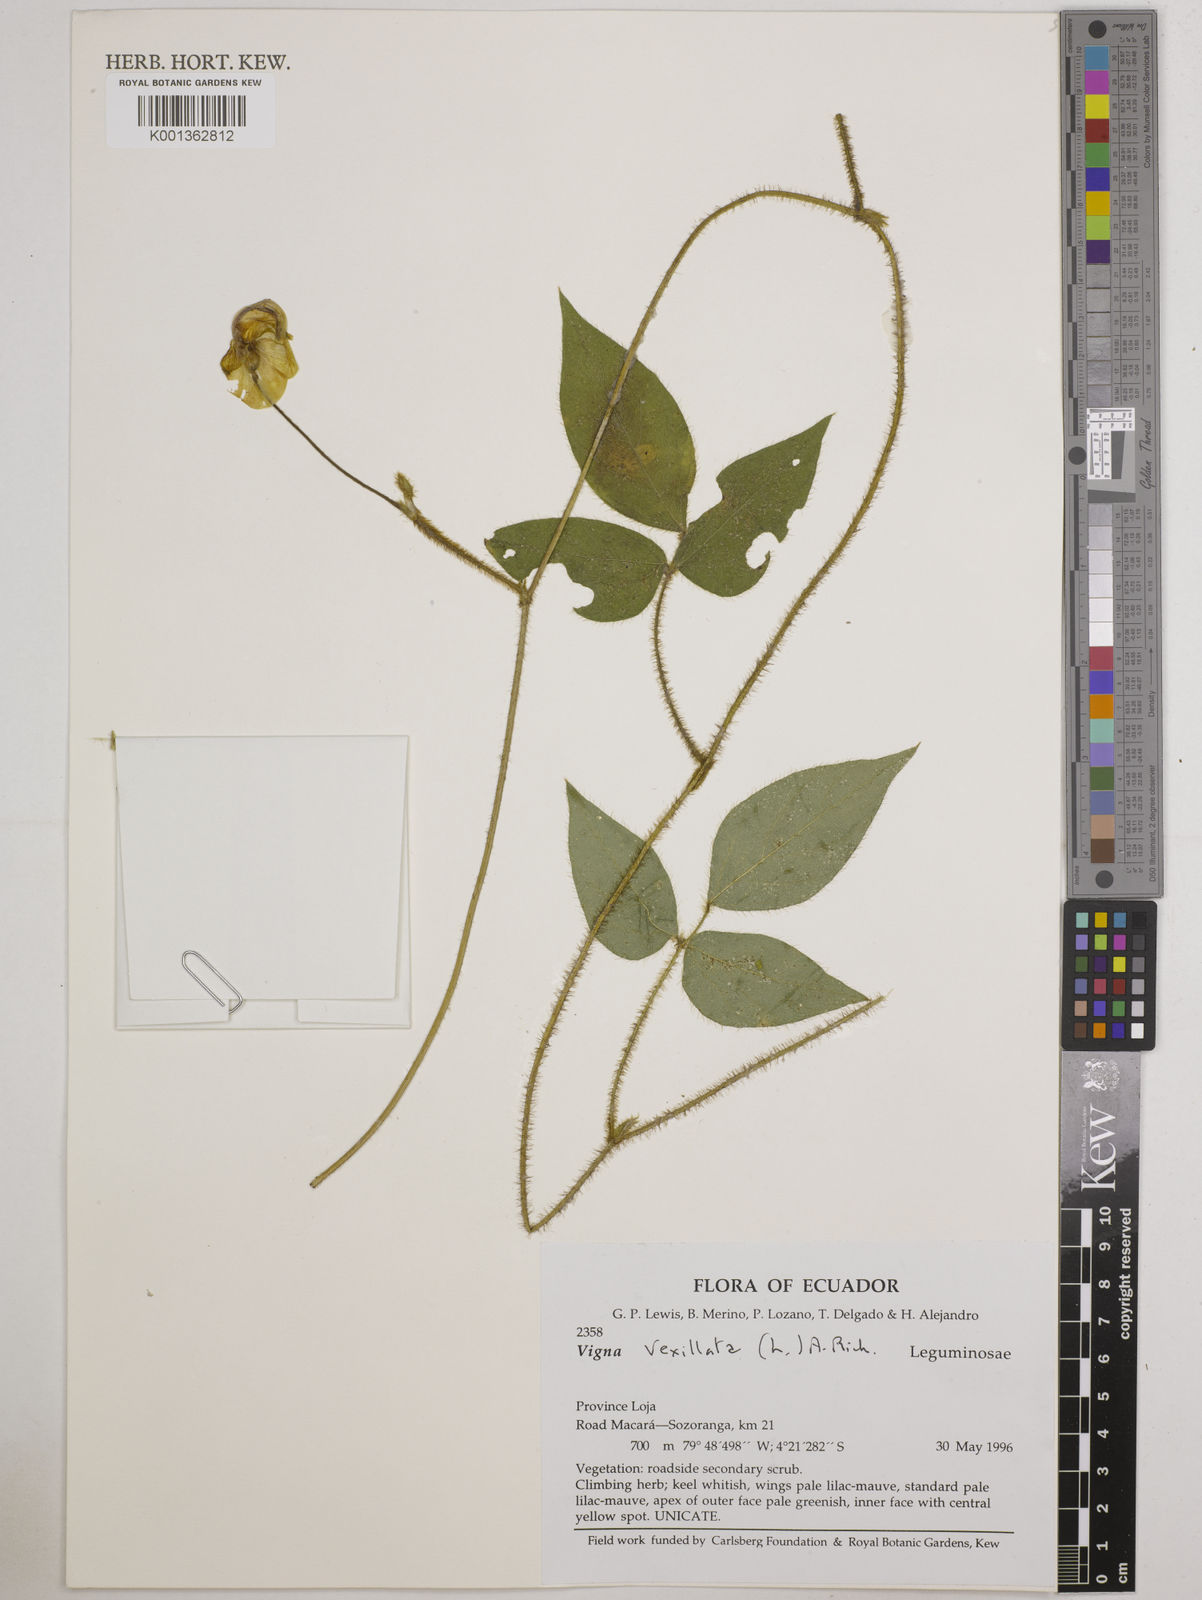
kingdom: Plantae
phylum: Tracheophyta
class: Magnoliopsida
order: Fabales
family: Fabaceae
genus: Vigna
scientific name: Vigna vexillata
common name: Zombi pea
